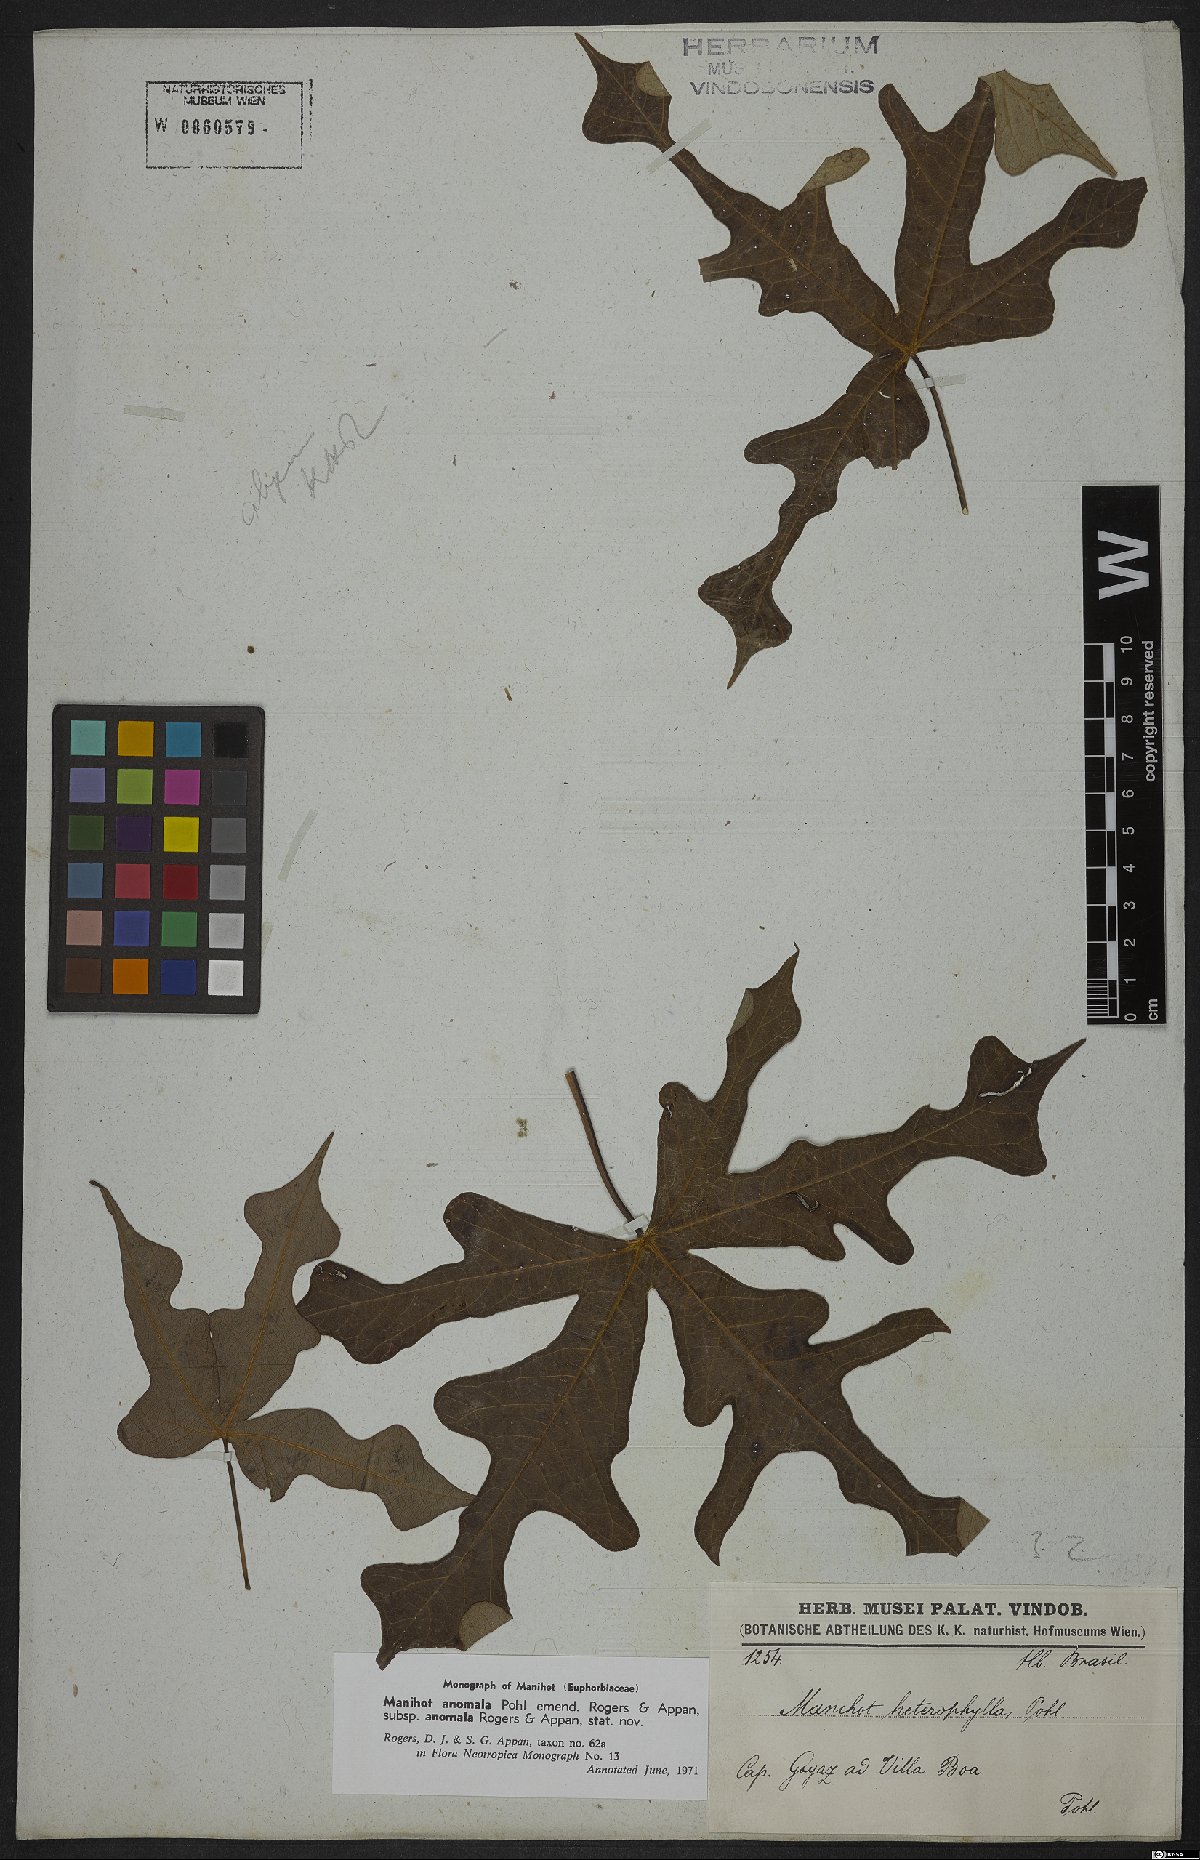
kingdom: Plantae
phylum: Tracheophyta
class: Magnoliopsida
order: Malpighiales
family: Euphorbiaceae
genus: Manihot
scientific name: Manihot anomala
